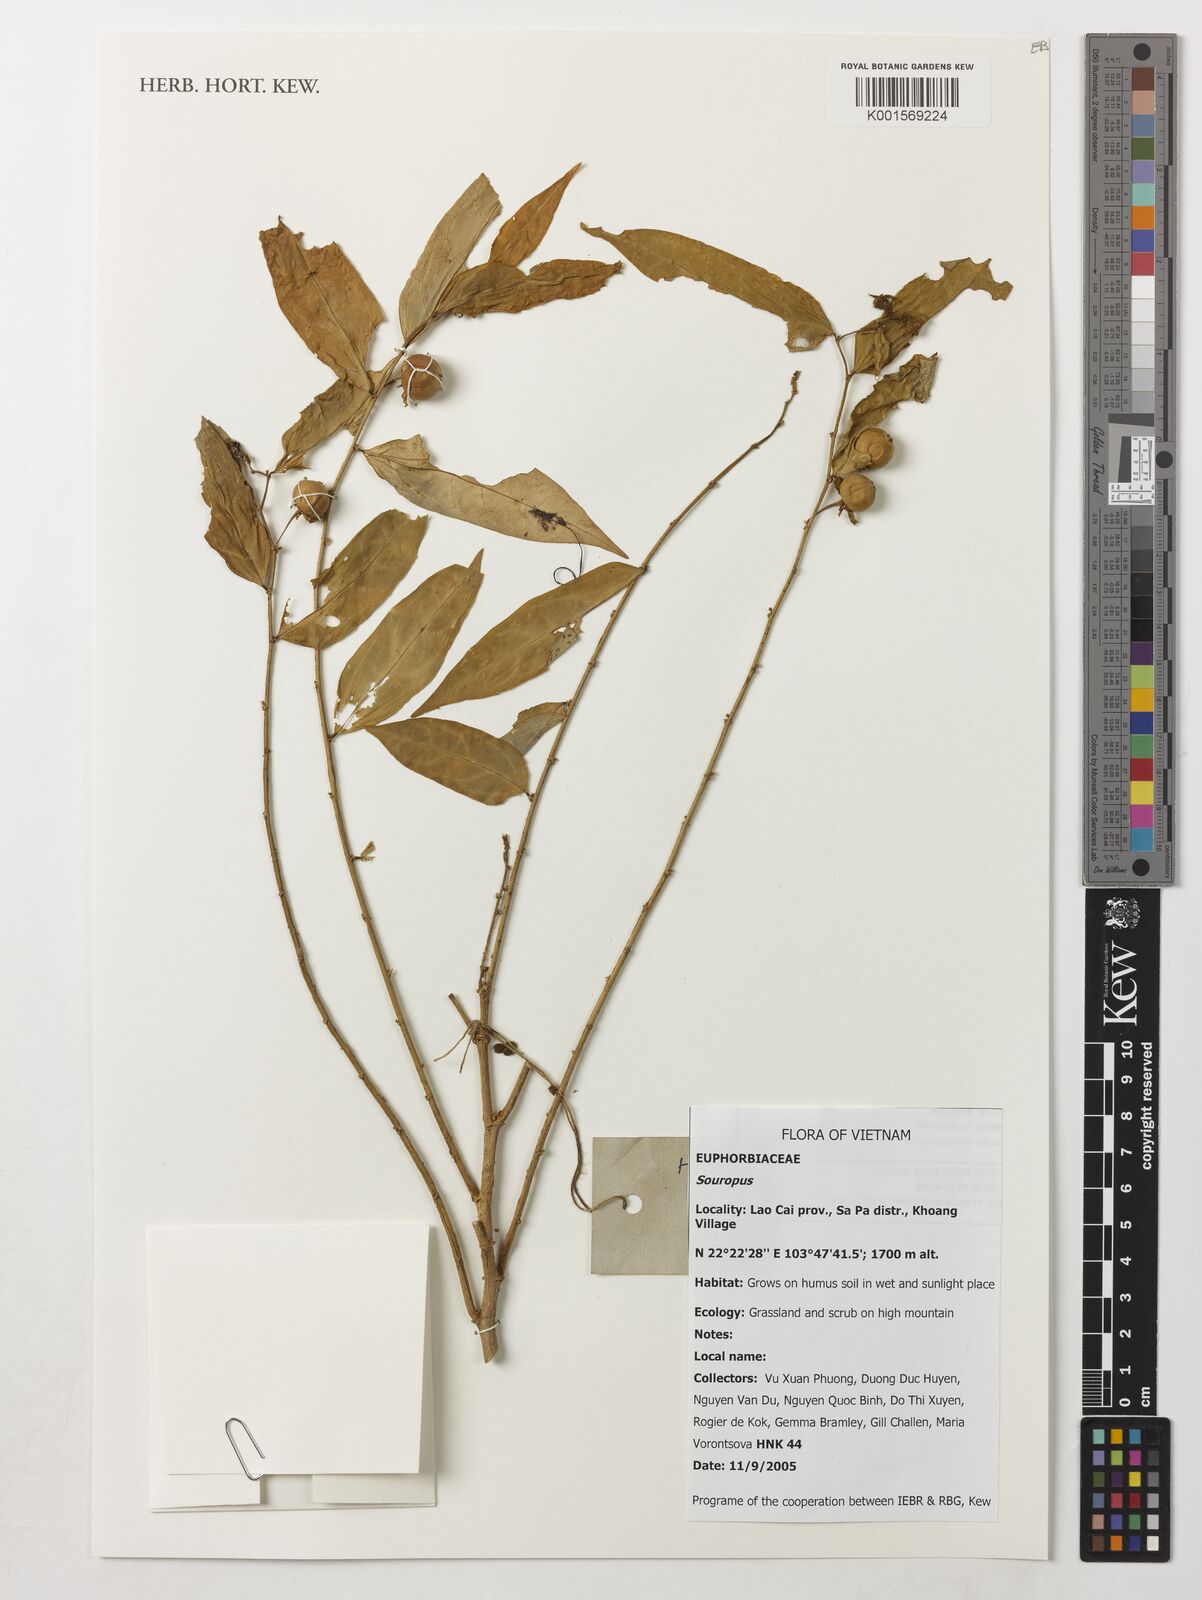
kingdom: Animalia
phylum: Chordata
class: Amphibia
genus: Sauropus
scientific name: Sauropus
